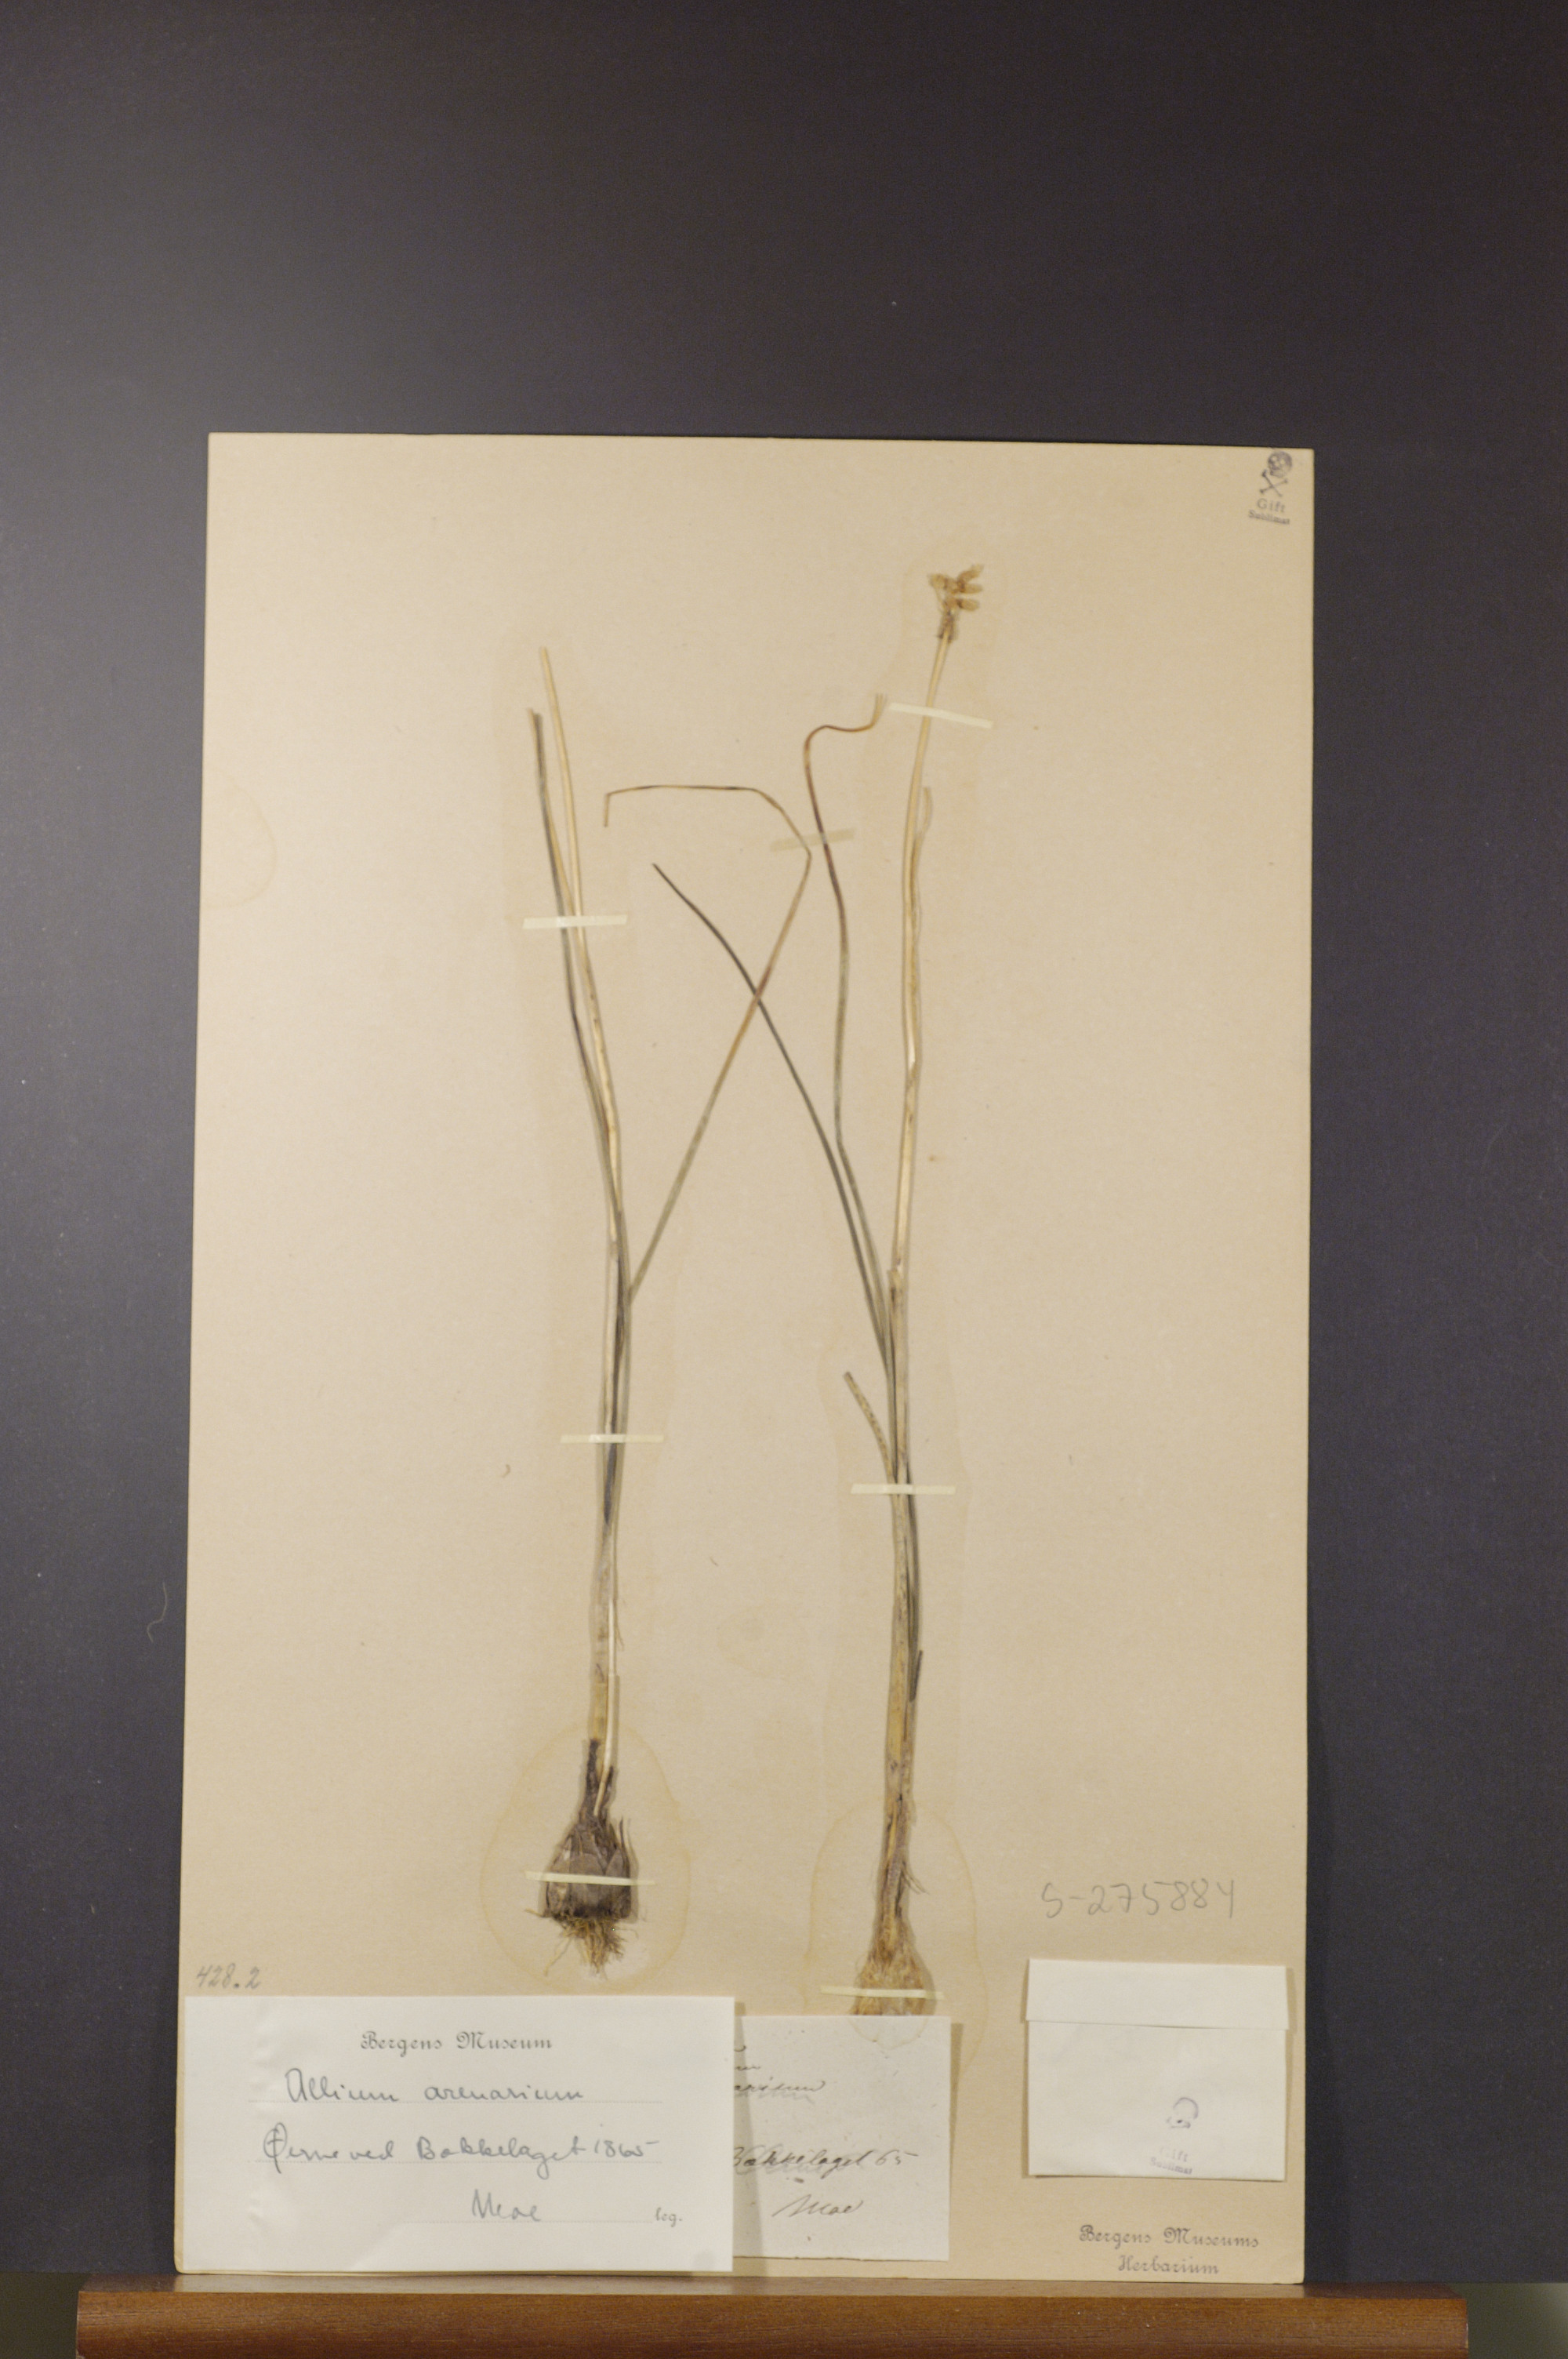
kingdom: Plantae
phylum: Tracheophyta
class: Liliopsida
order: Asparagales
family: Amaryllidaceae
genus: Allium
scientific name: Allium vineale
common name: Crow garlic
